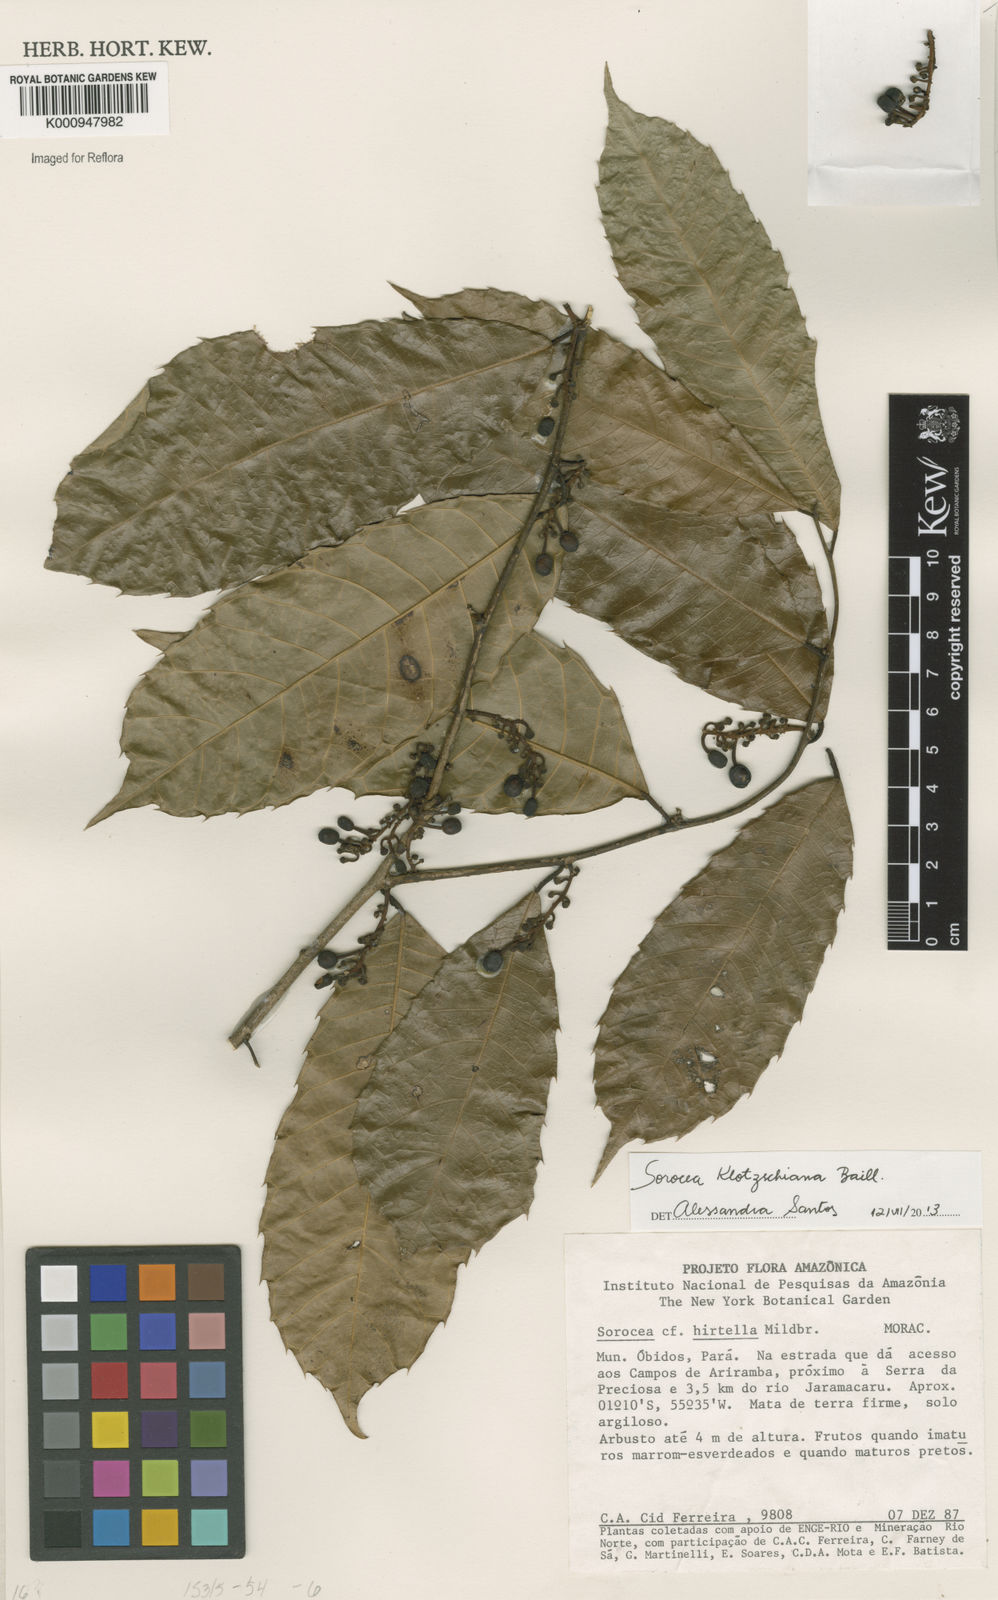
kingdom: Plantae
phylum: Tracheophyta
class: Magnoliopsida
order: Rosales
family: Moraceae
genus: Sorocea
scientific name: Sorocea guilleminiana
